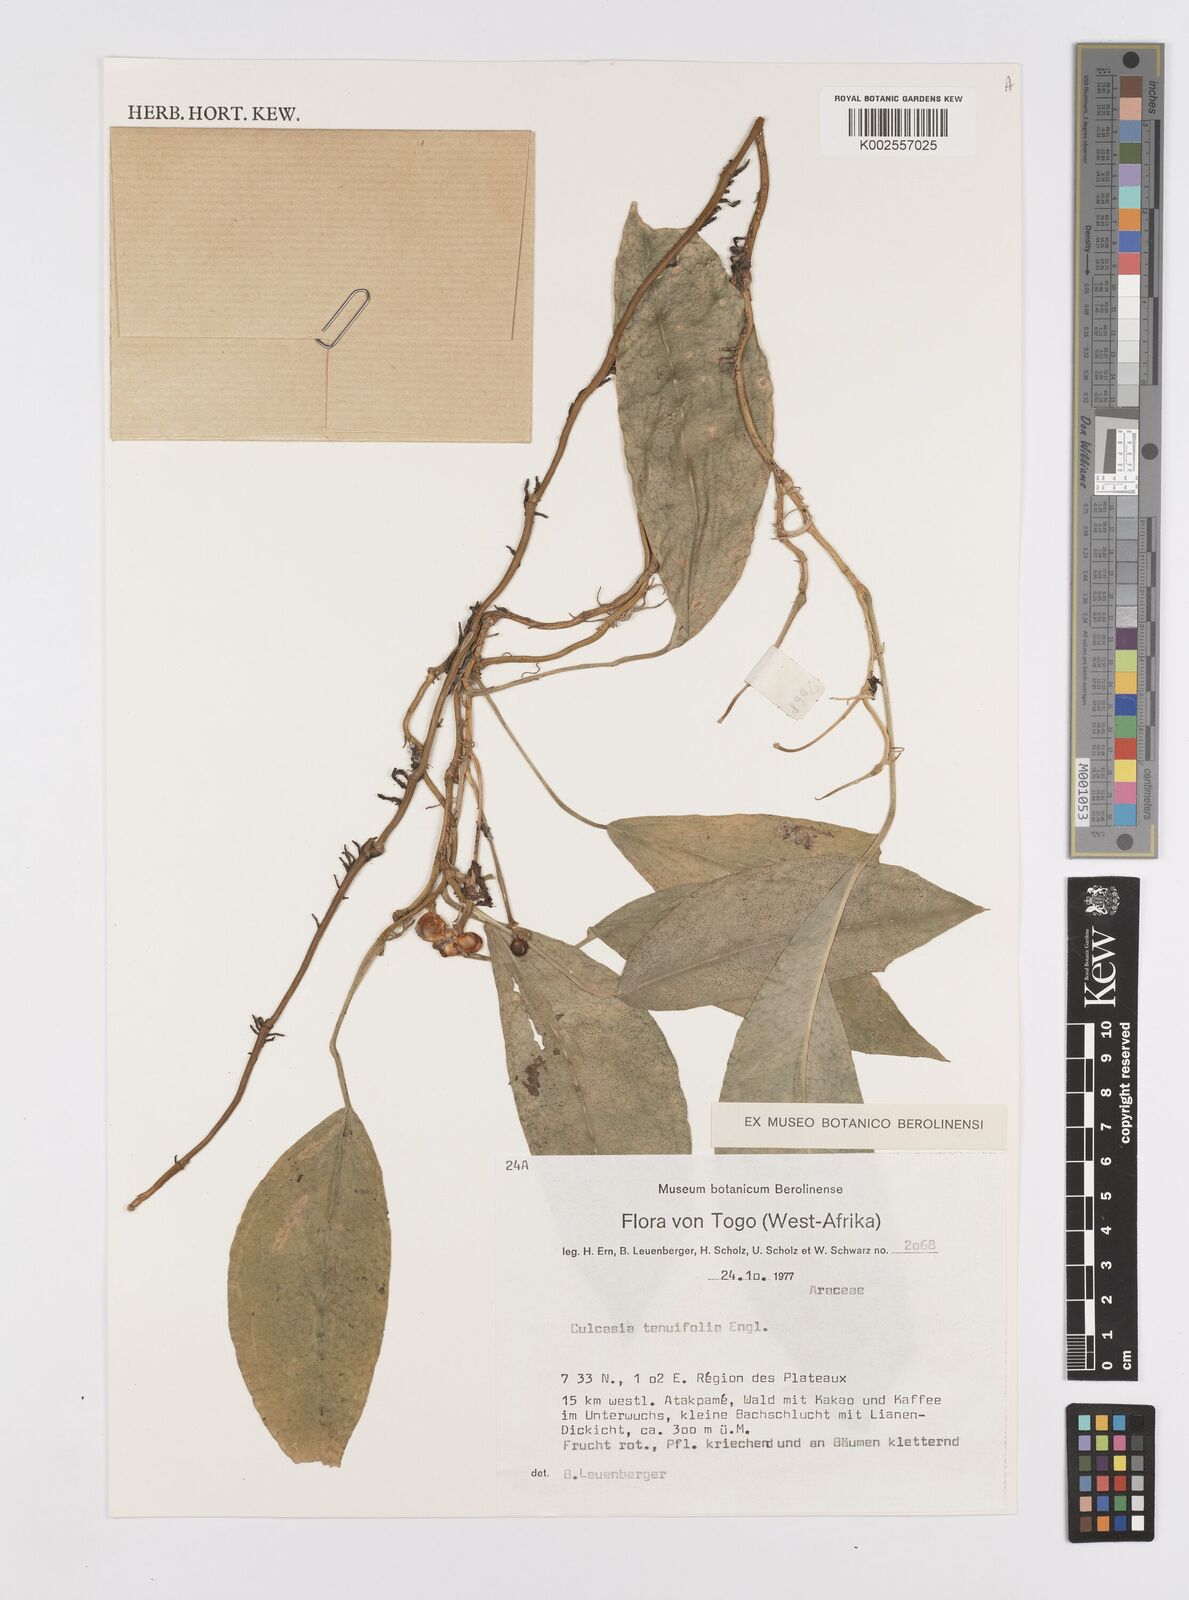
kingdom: Plantae
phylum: Tracheophyta
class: Liliopsida
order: Alismatales
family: Araceae
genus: Culcasia
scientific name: Culcasia tenuifolia
